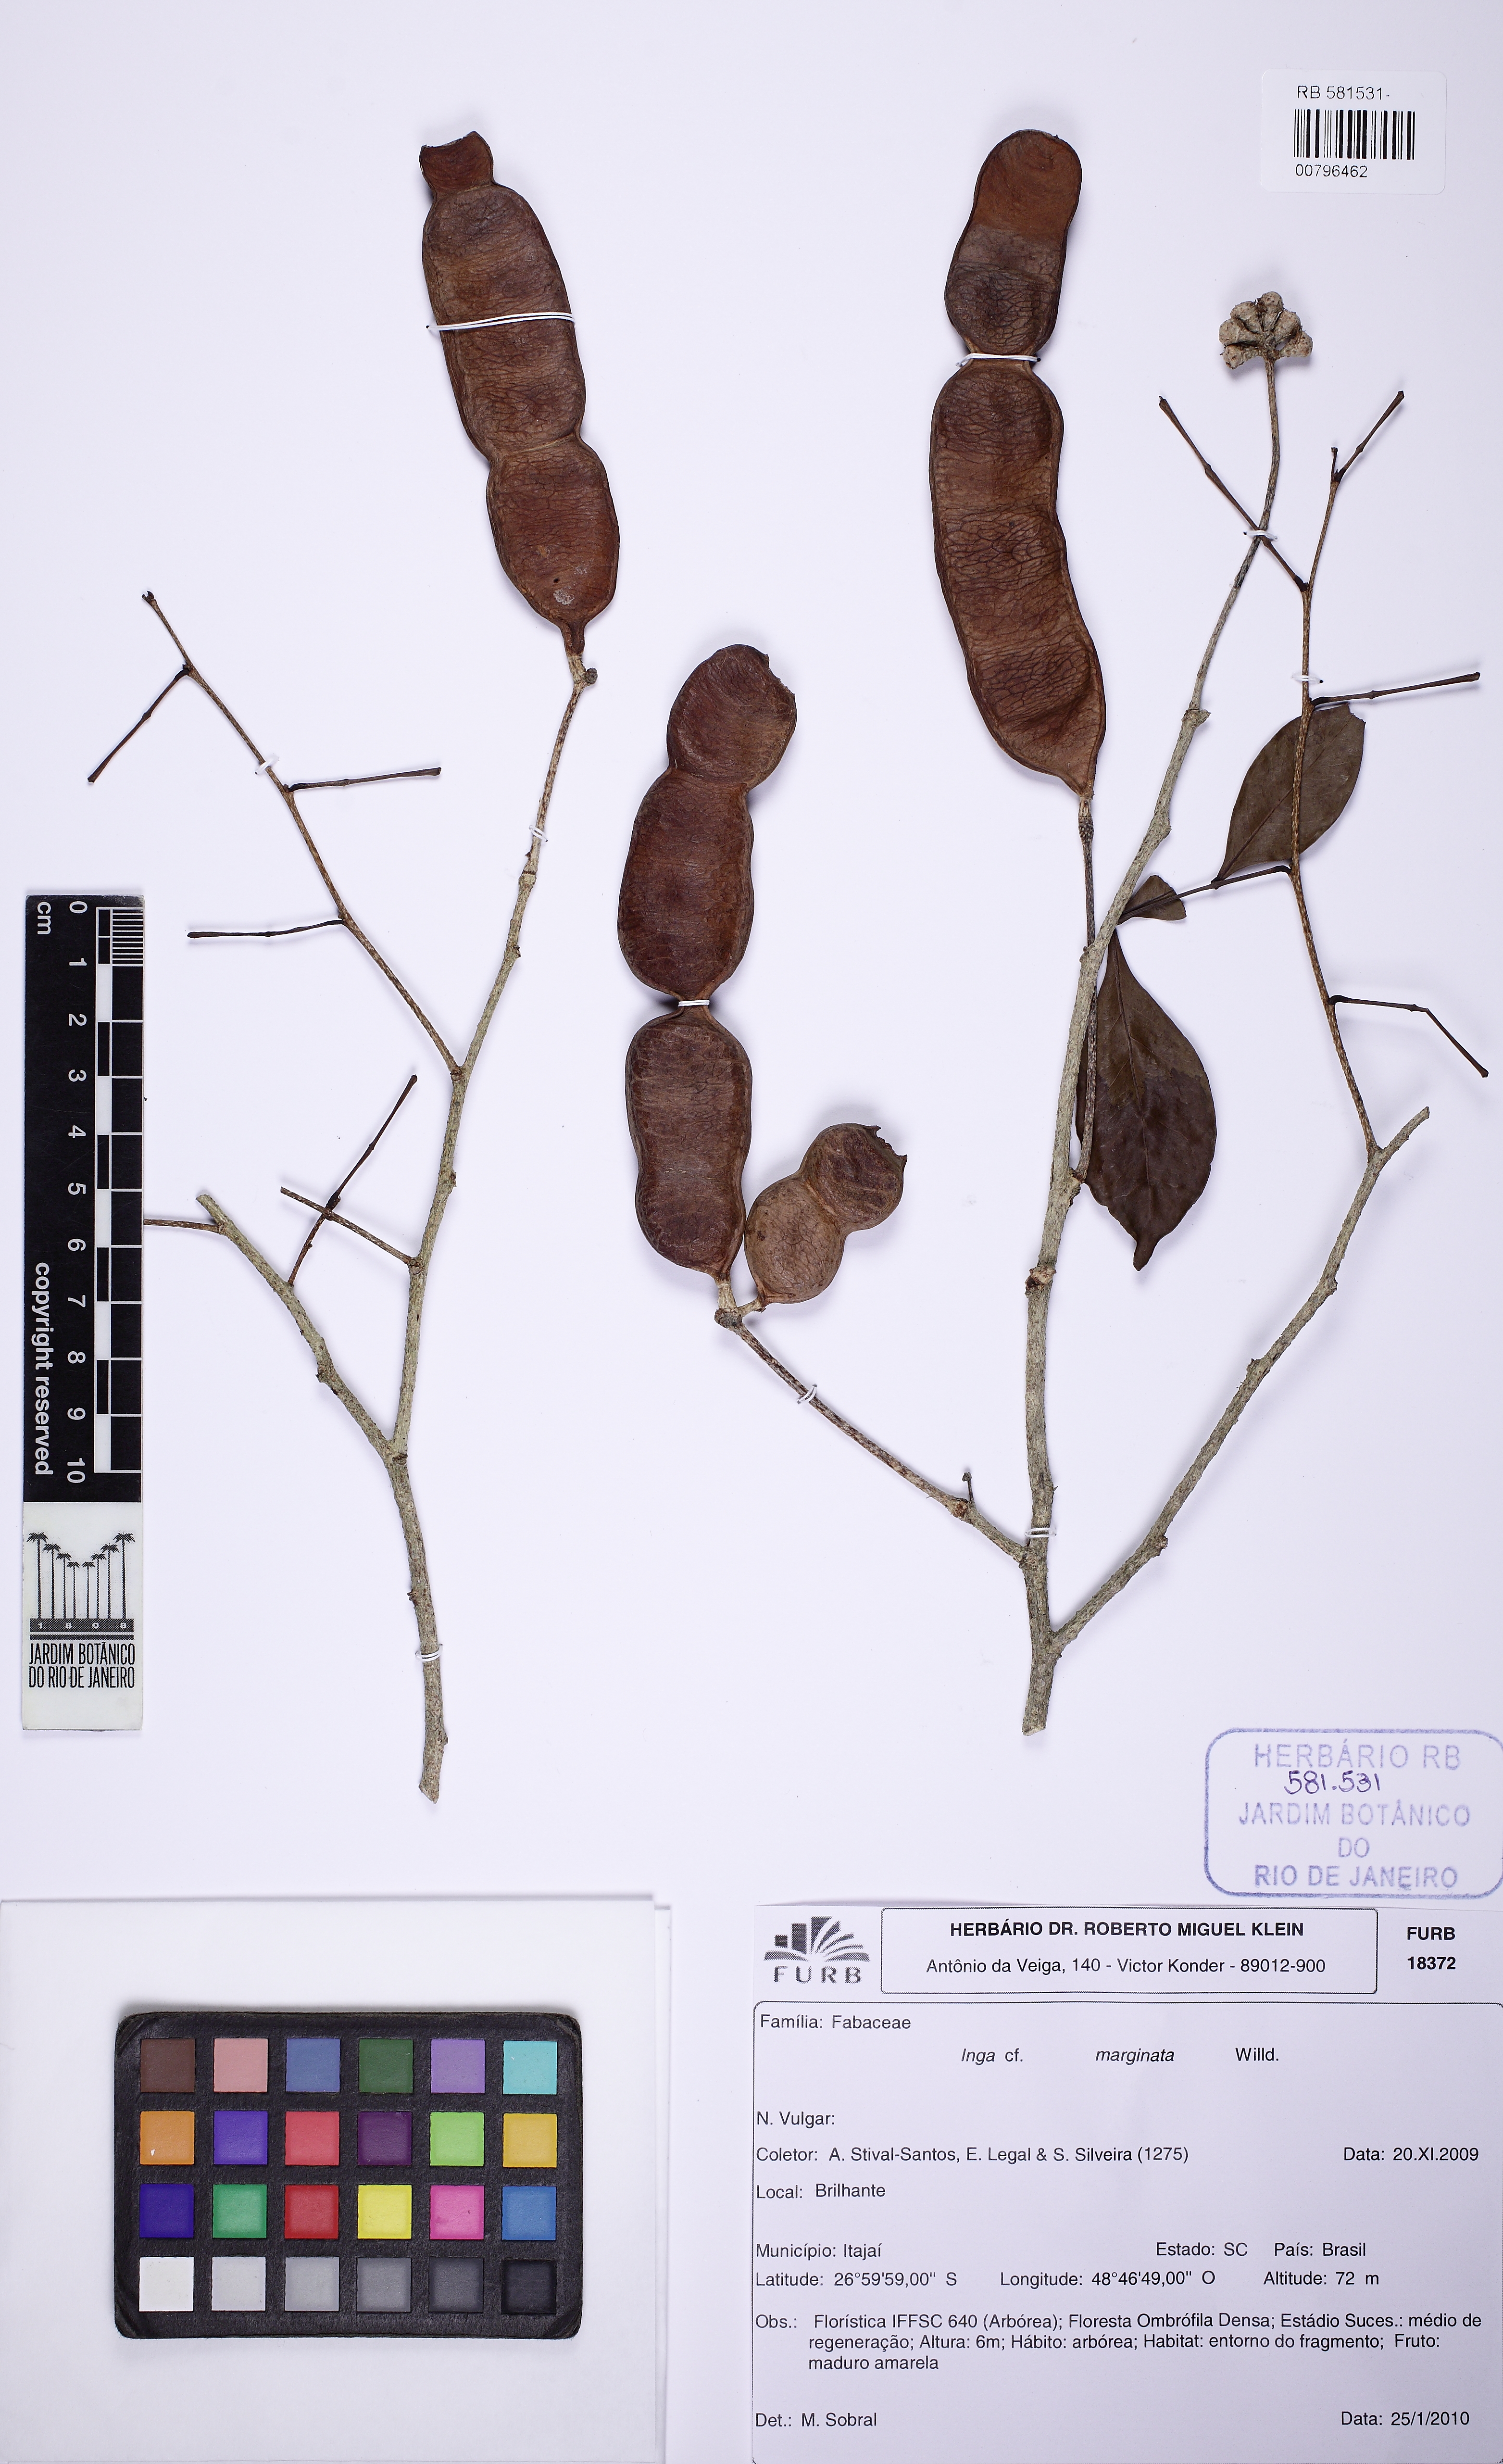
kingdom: Plantae
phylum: Tracheophyta
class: Magnoliopsida
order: Fabales
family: Fabaceae
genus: Inga
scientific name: Inga marginata
